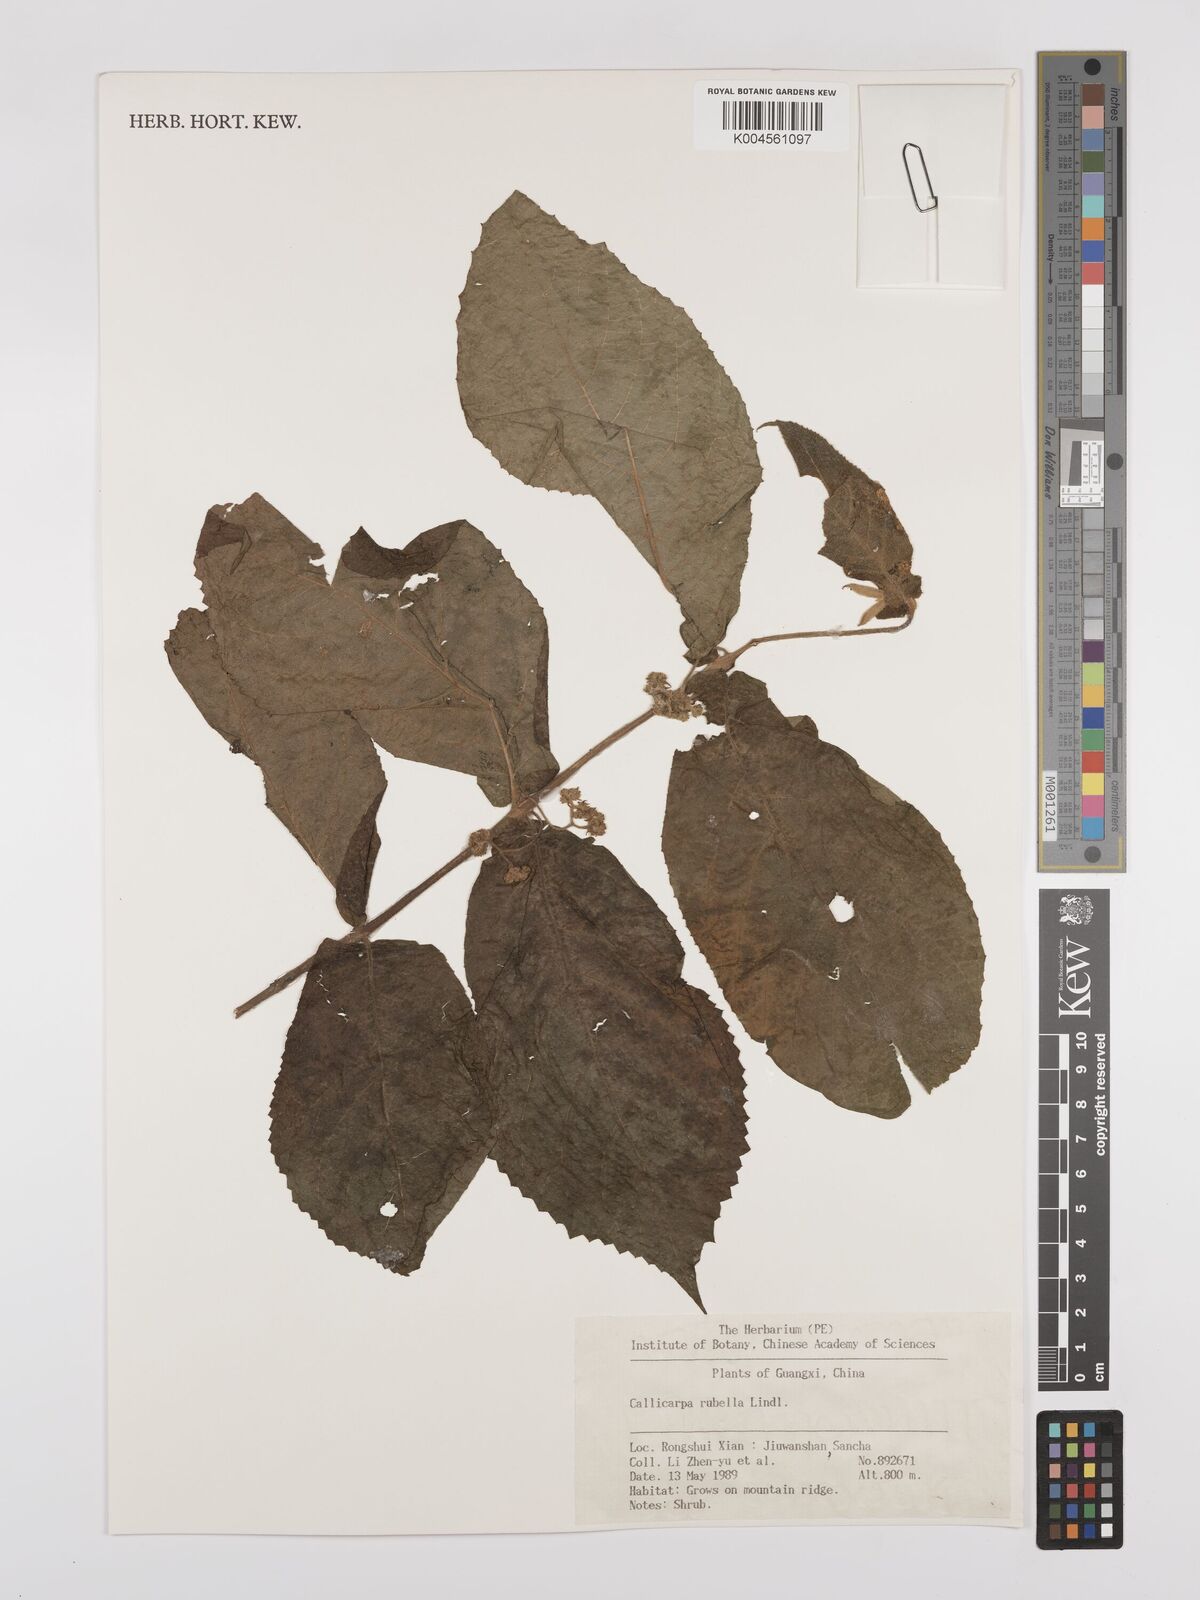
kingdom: Plantae
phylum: Tracheophyta
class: Magnoliopsida
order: Lamiales
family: Lamiaceae
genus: Callicarpa
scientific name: Callicarpa rubella
